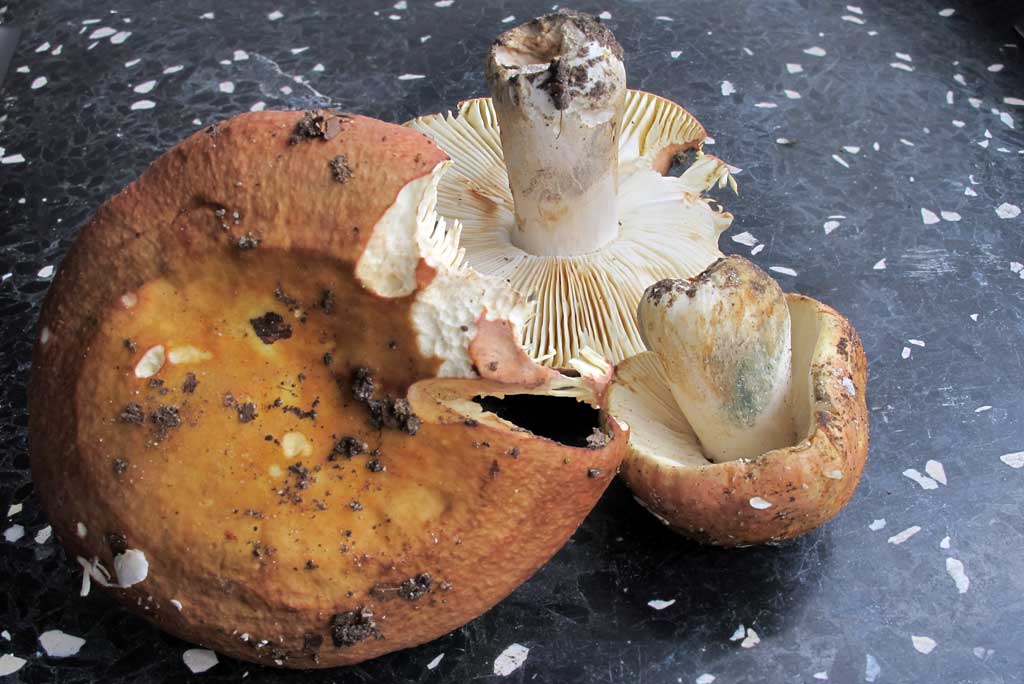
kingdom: Fungi
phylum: Basidiomycota
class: Agaricomycetes
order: Russulales
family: Russulaceae
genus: Russula
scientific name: Russula faginea
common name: bøge-skørhat
